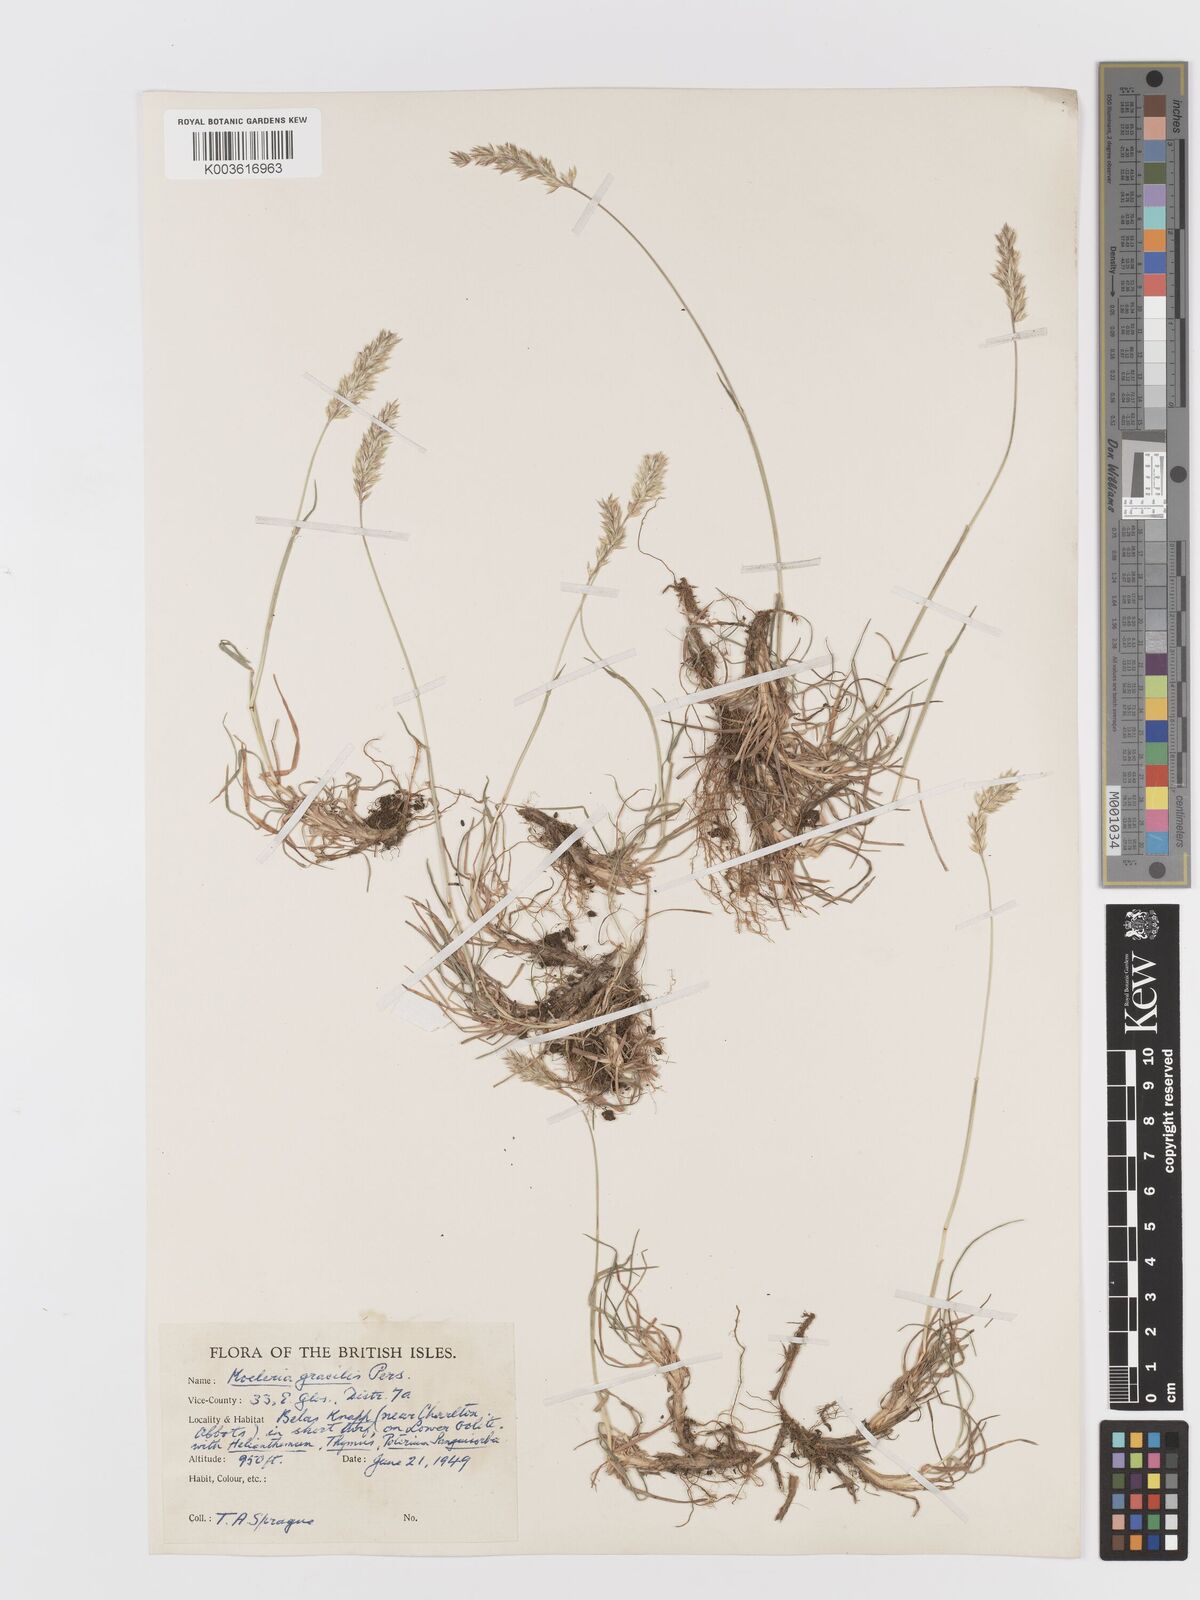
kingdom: Plantae
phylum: Tracheophyta
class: Liliopsida
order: Poales
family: Poaceae
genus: Koeleria
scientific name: Koeleria nitidula
